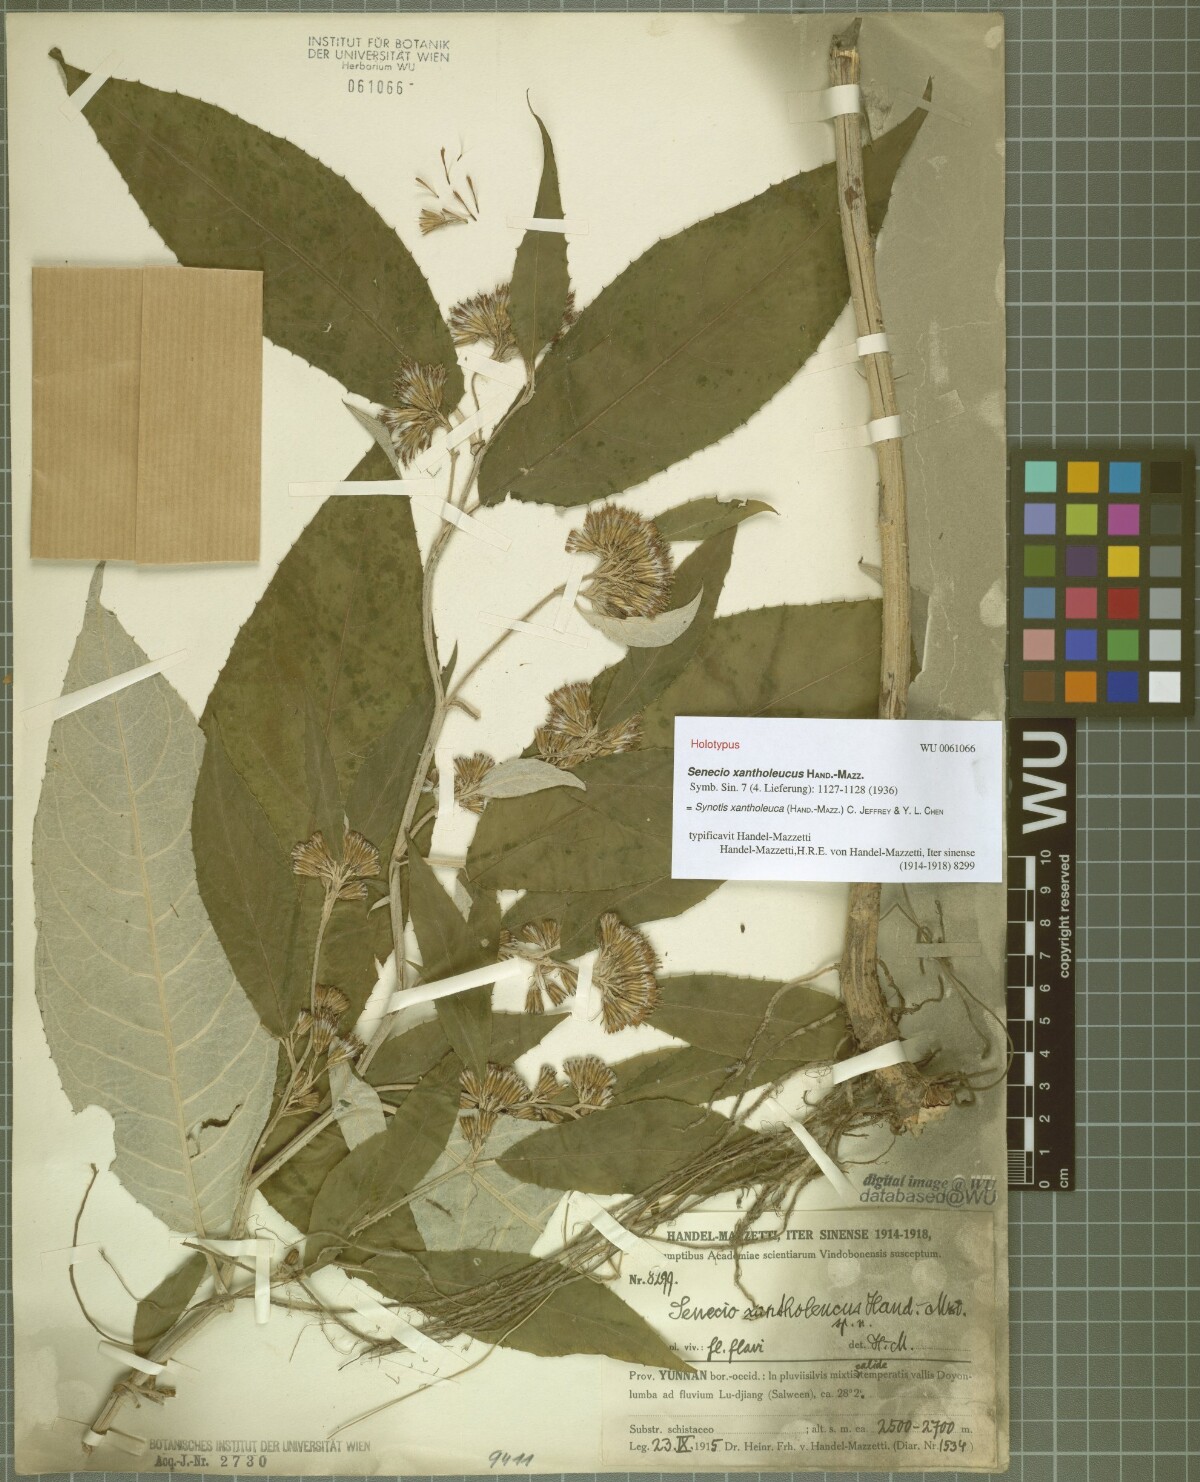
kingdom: Plantae
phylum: Tracheophyta
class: Magnoliopsida
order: Asterales
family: Asteraceae
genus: Synotis
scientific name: Synotis xantholeuca
